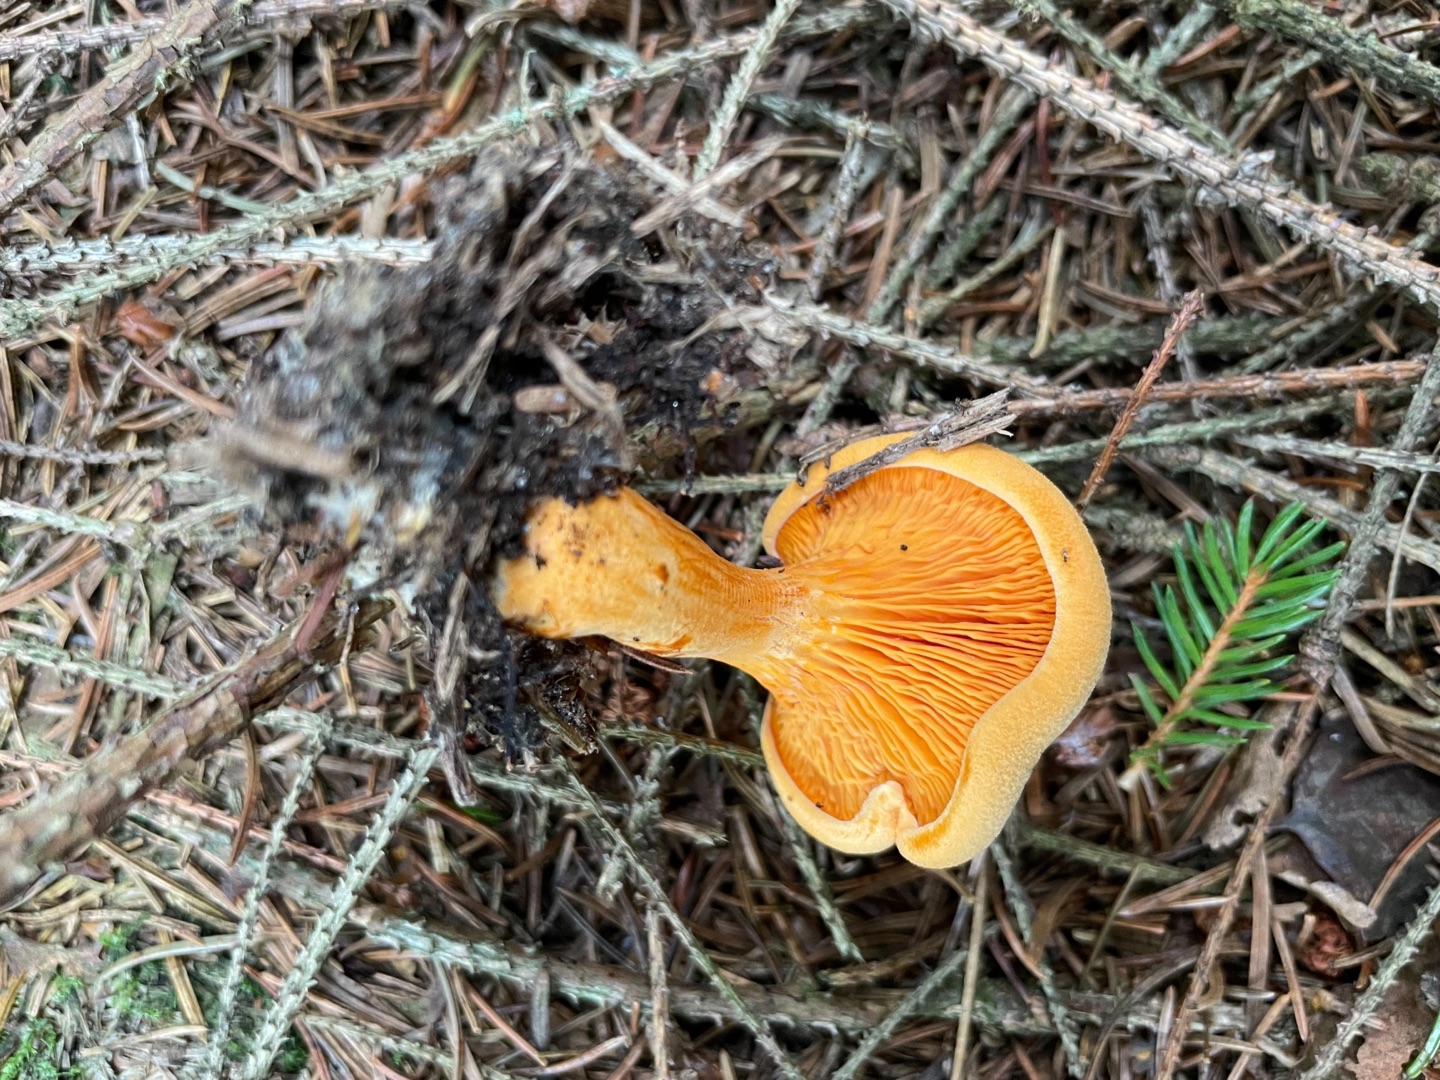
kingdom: Fungi
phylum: Basidiomycota
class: Agaricomycetes
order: Boletales
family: Hygrophoropsidaceae
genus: Hygrophoropsis
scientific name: Hygrophoropsis aurantiaca
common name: Almindelig orangekantarel
